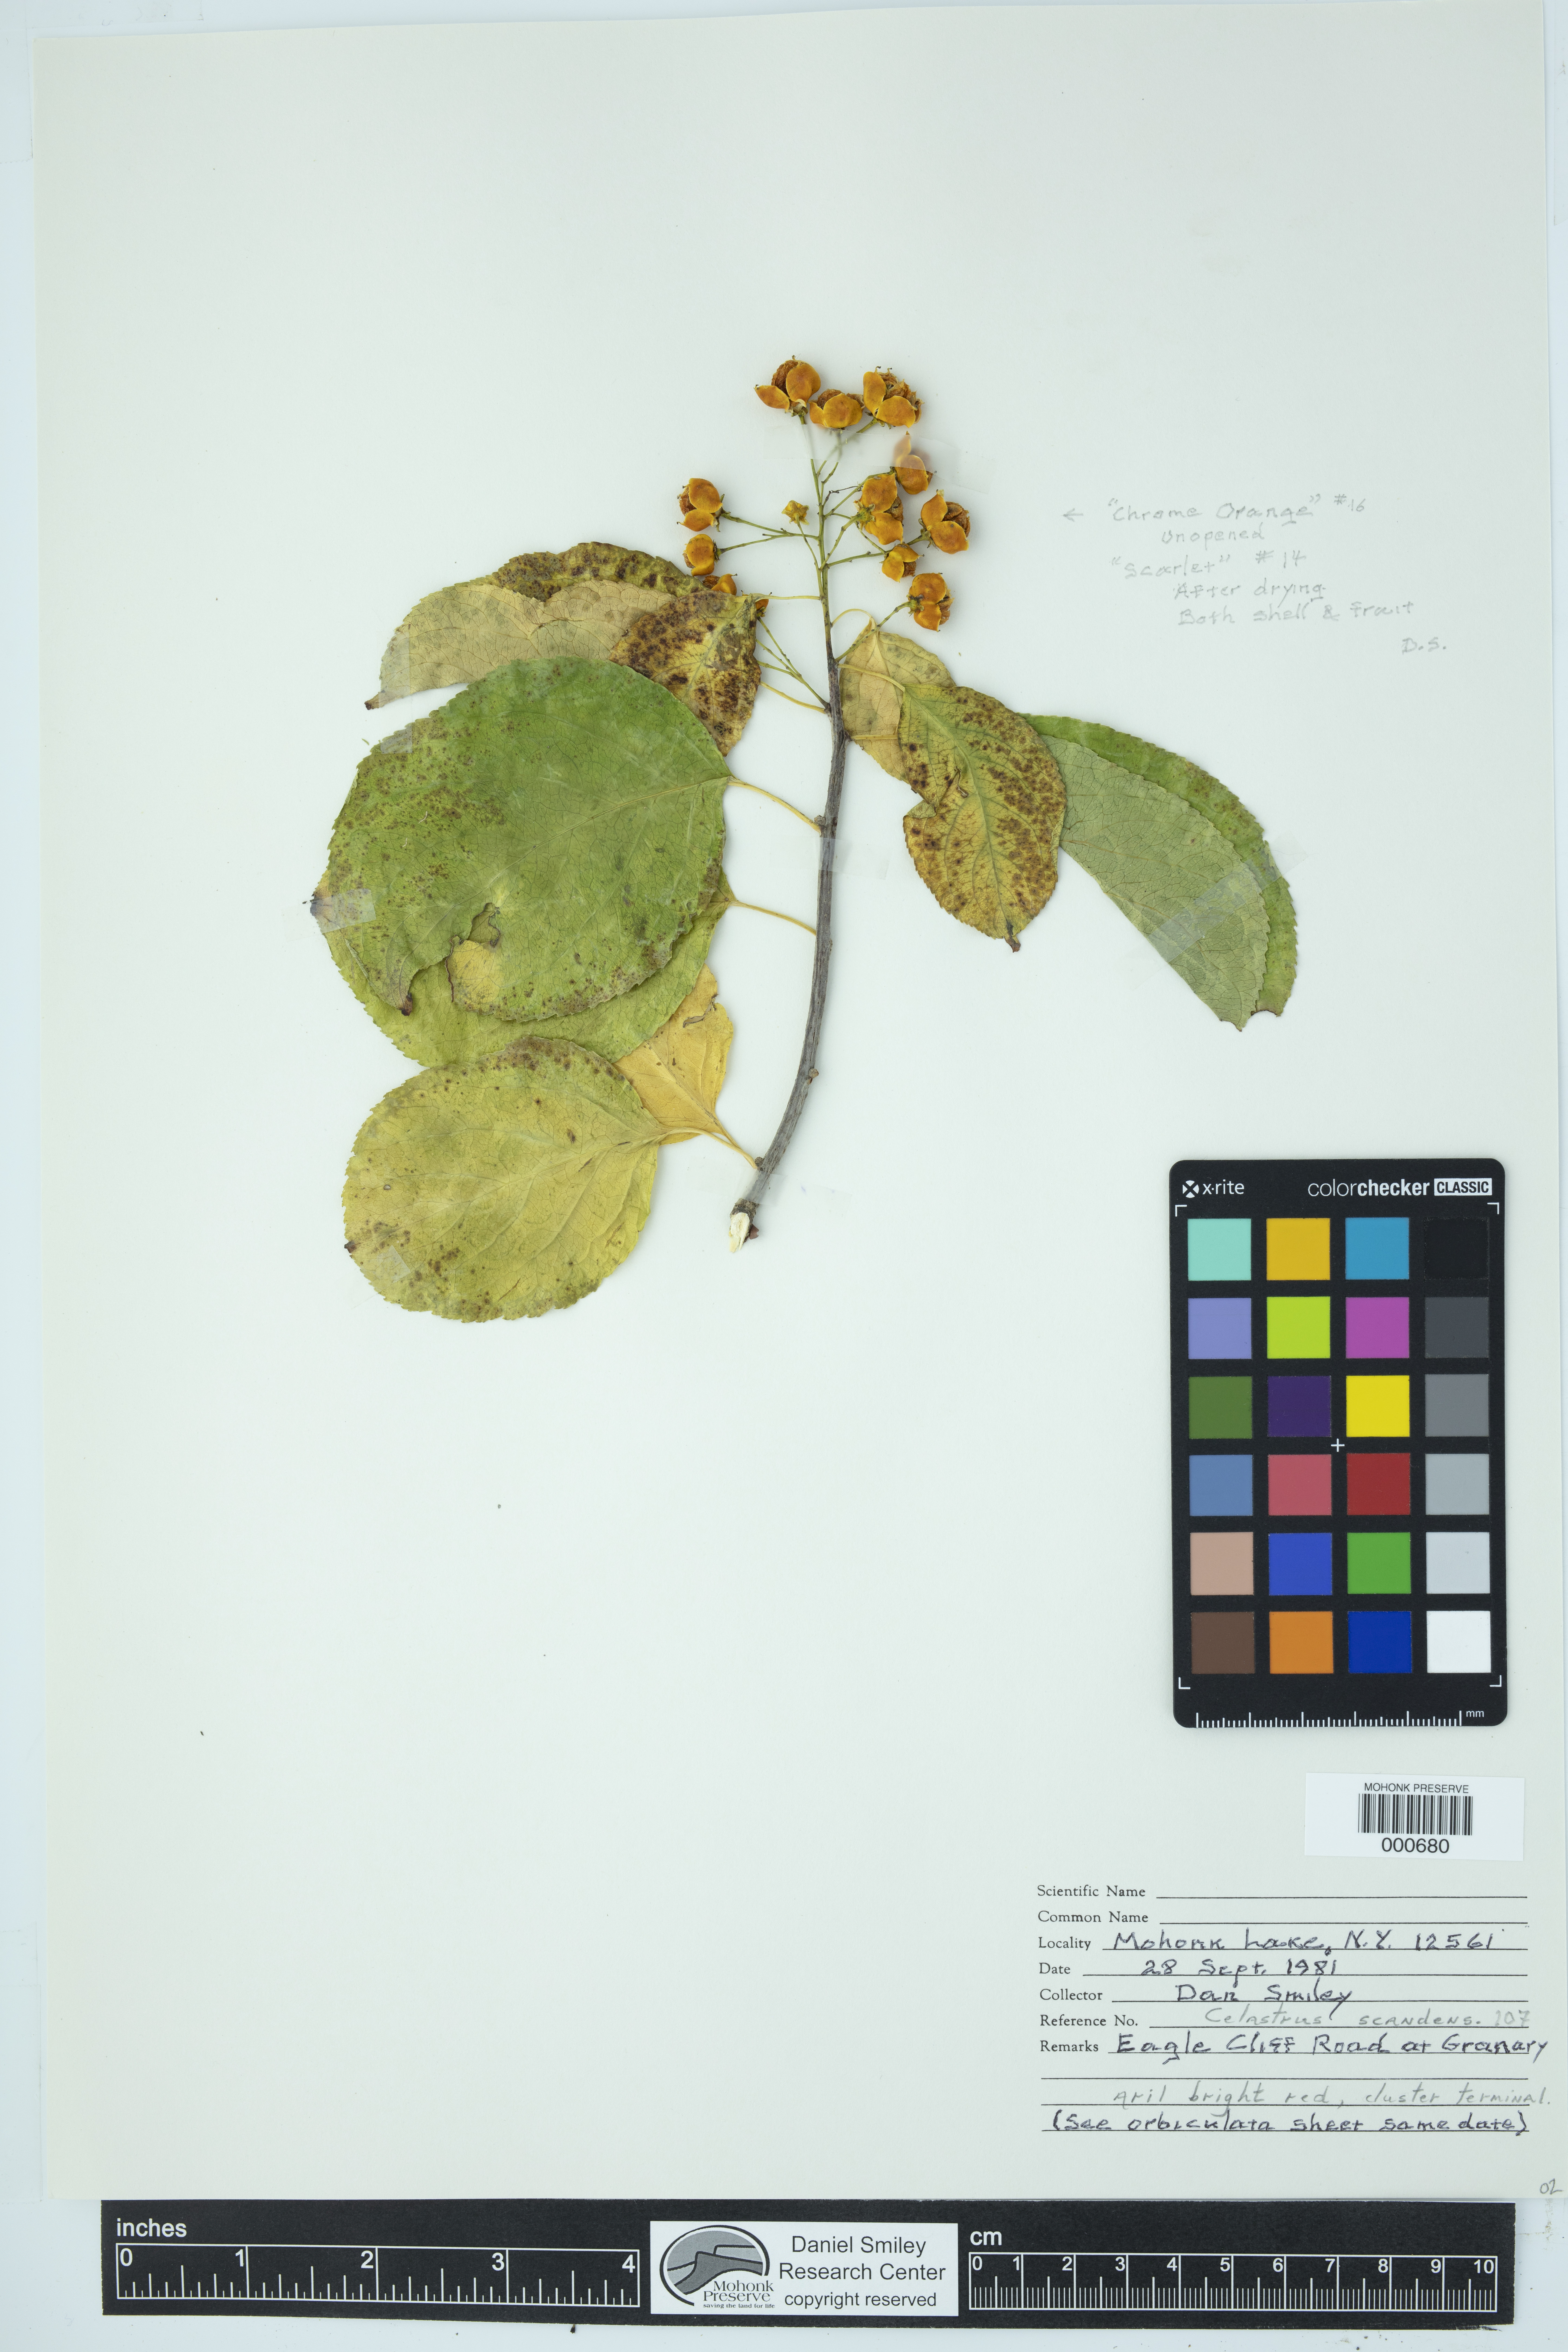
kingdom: Plantae
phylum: Tracheophyta
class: Magnoliopsida
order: Celastrales
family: Celastraceae
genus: Celastrus
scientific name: Celastrus scandens
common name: American bittersweet
